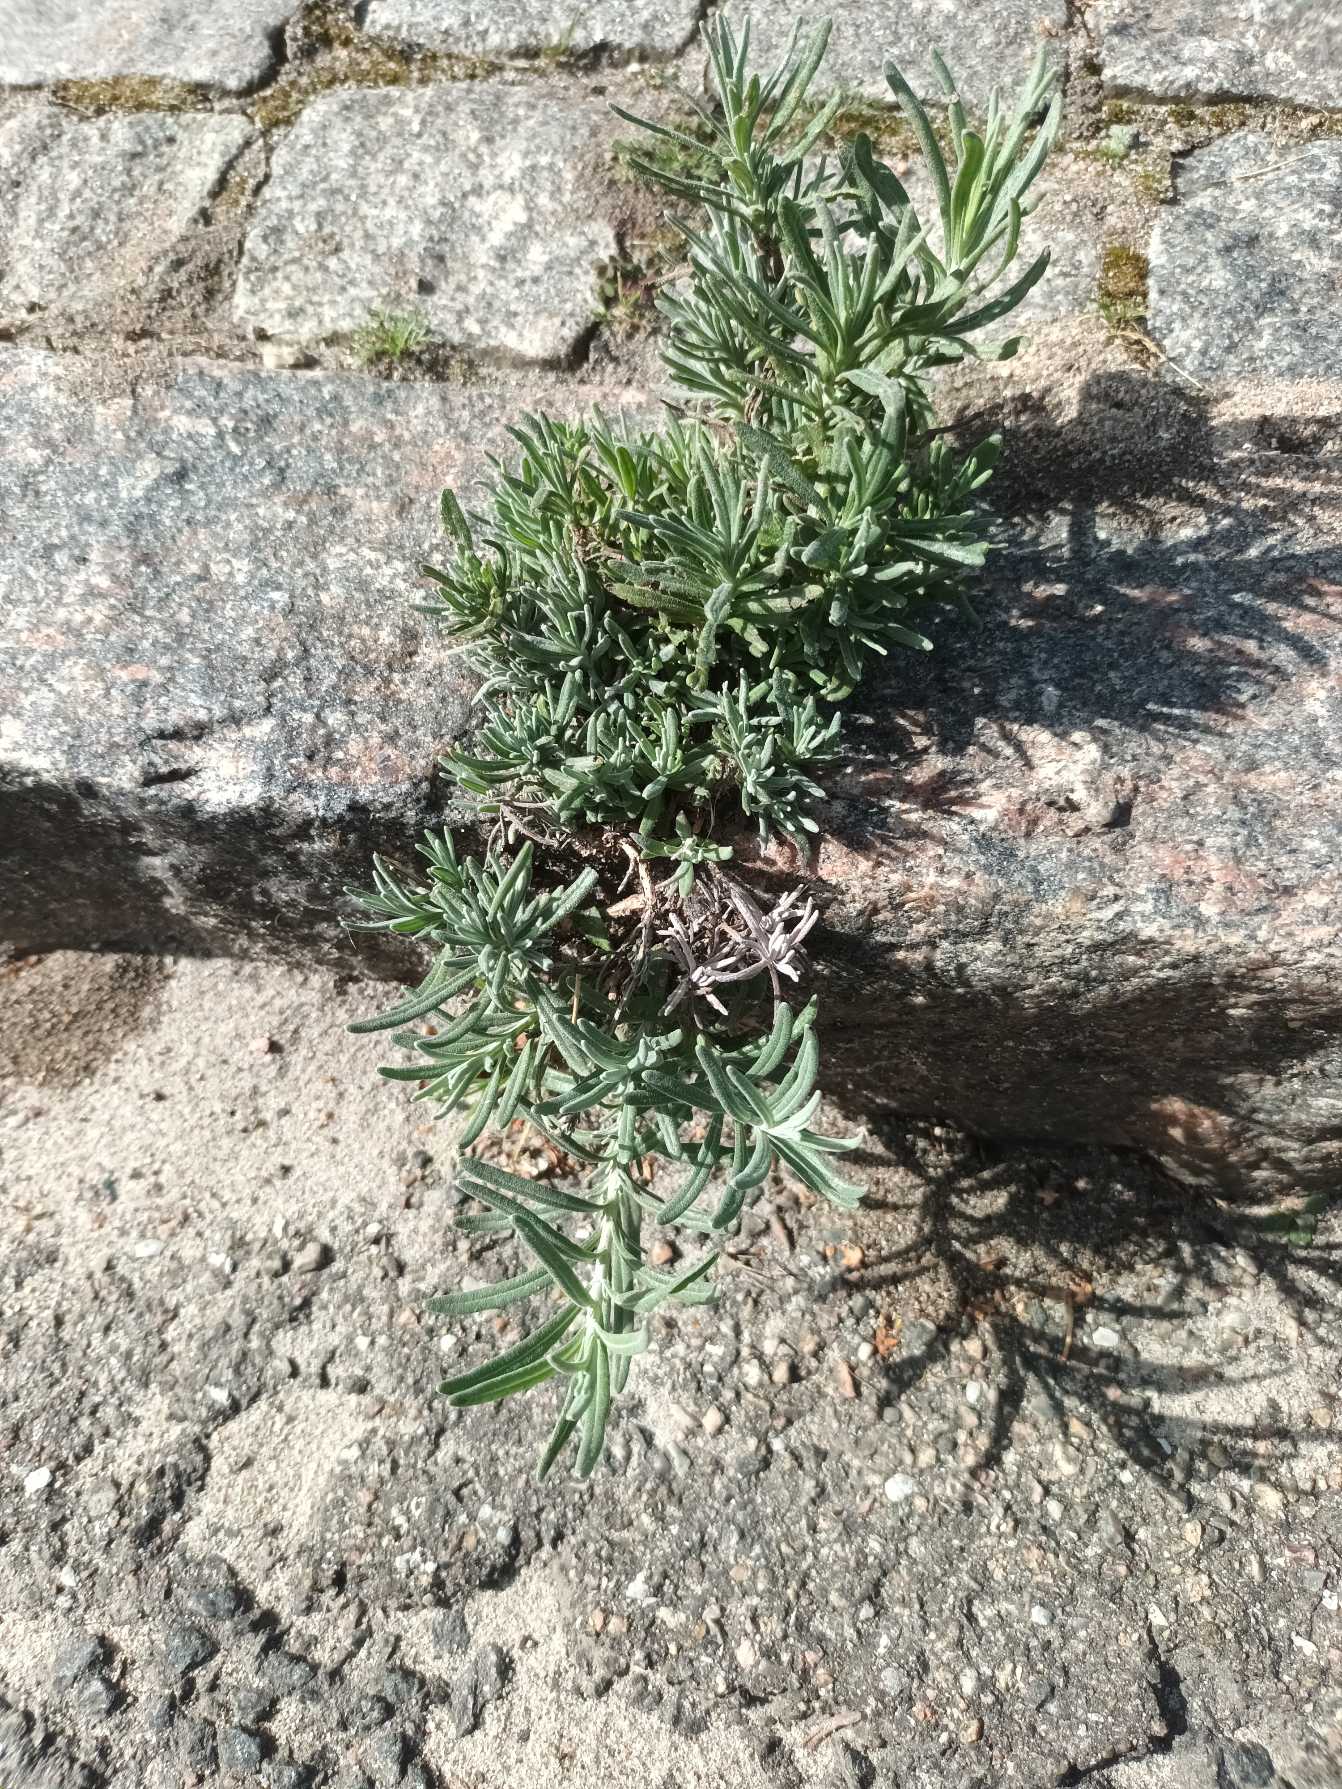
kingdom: Plantae
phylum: Tracheophyta
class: Magnoliopsida
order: Lamiales
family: Lamiaceae
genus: Lavandula
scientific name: Lavandula angustifolia
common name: Ægte lavendel
